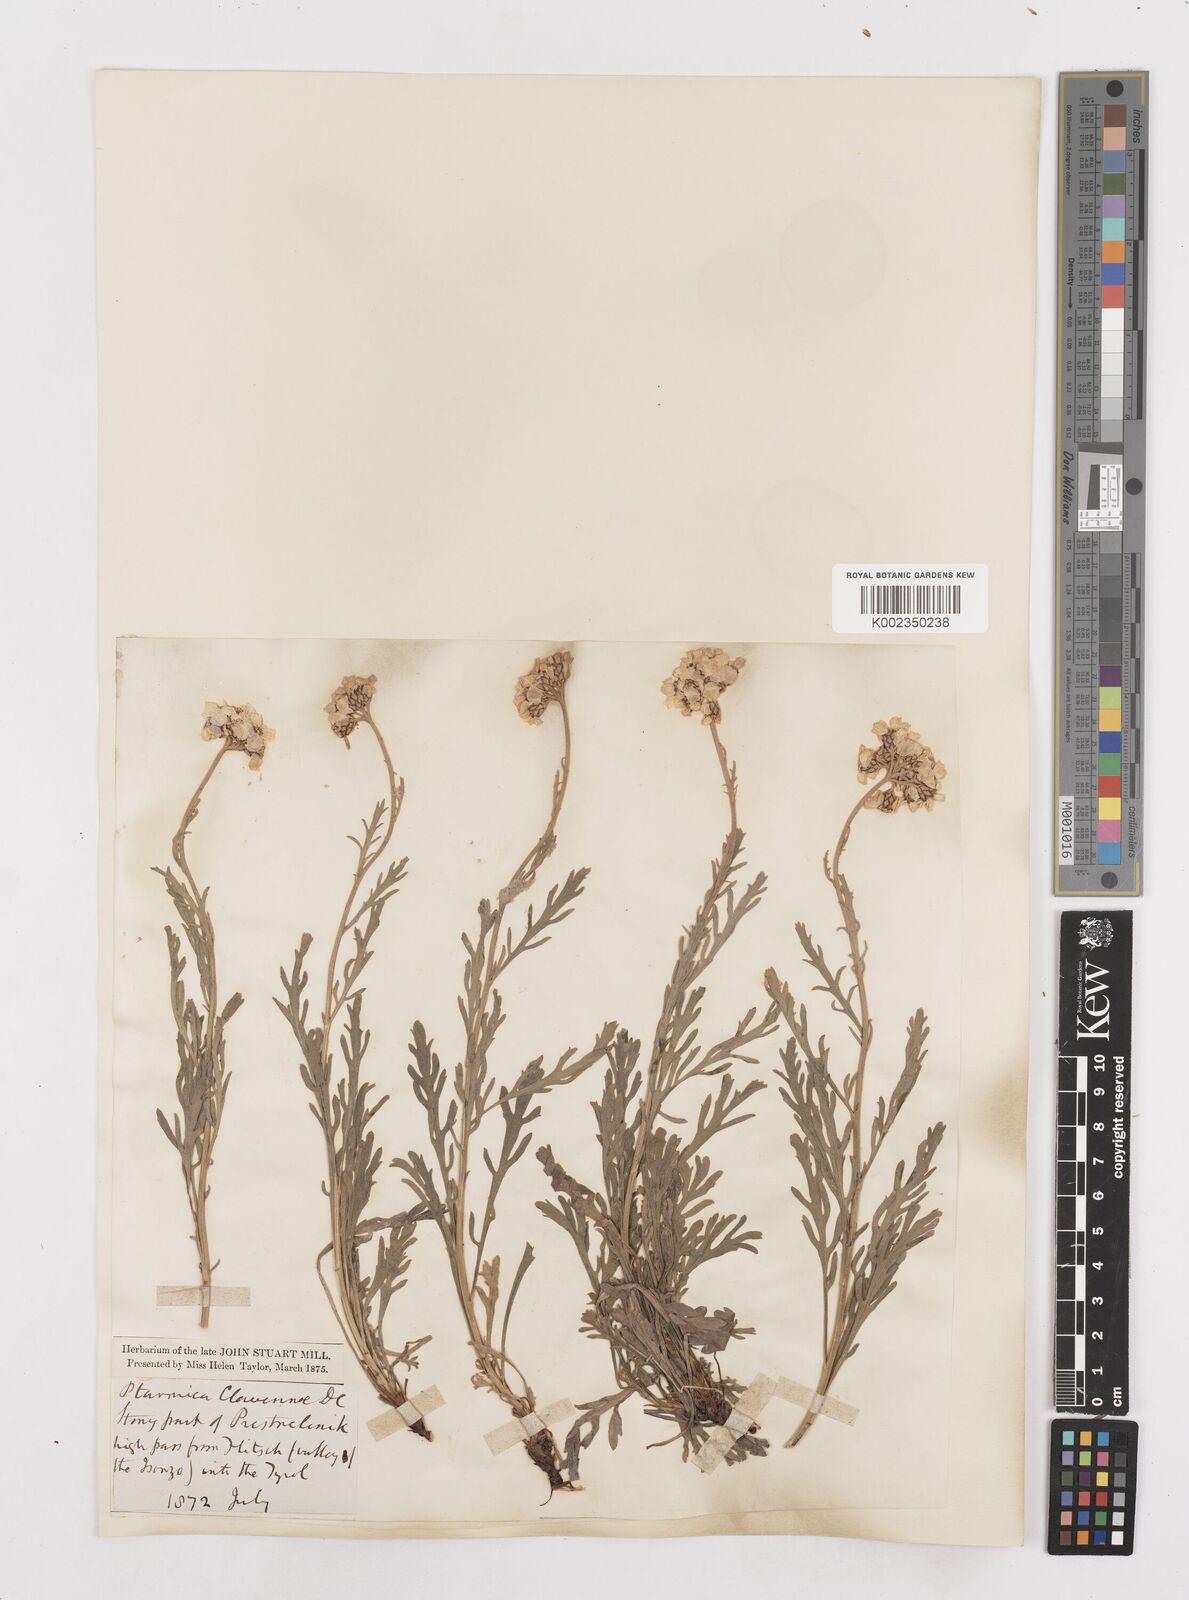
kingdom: Plantae
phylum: Tracheophyta
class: Magnoliopsida
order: Asterales
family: Asteraceae
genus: Achillea
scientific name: Achillea clavennae
